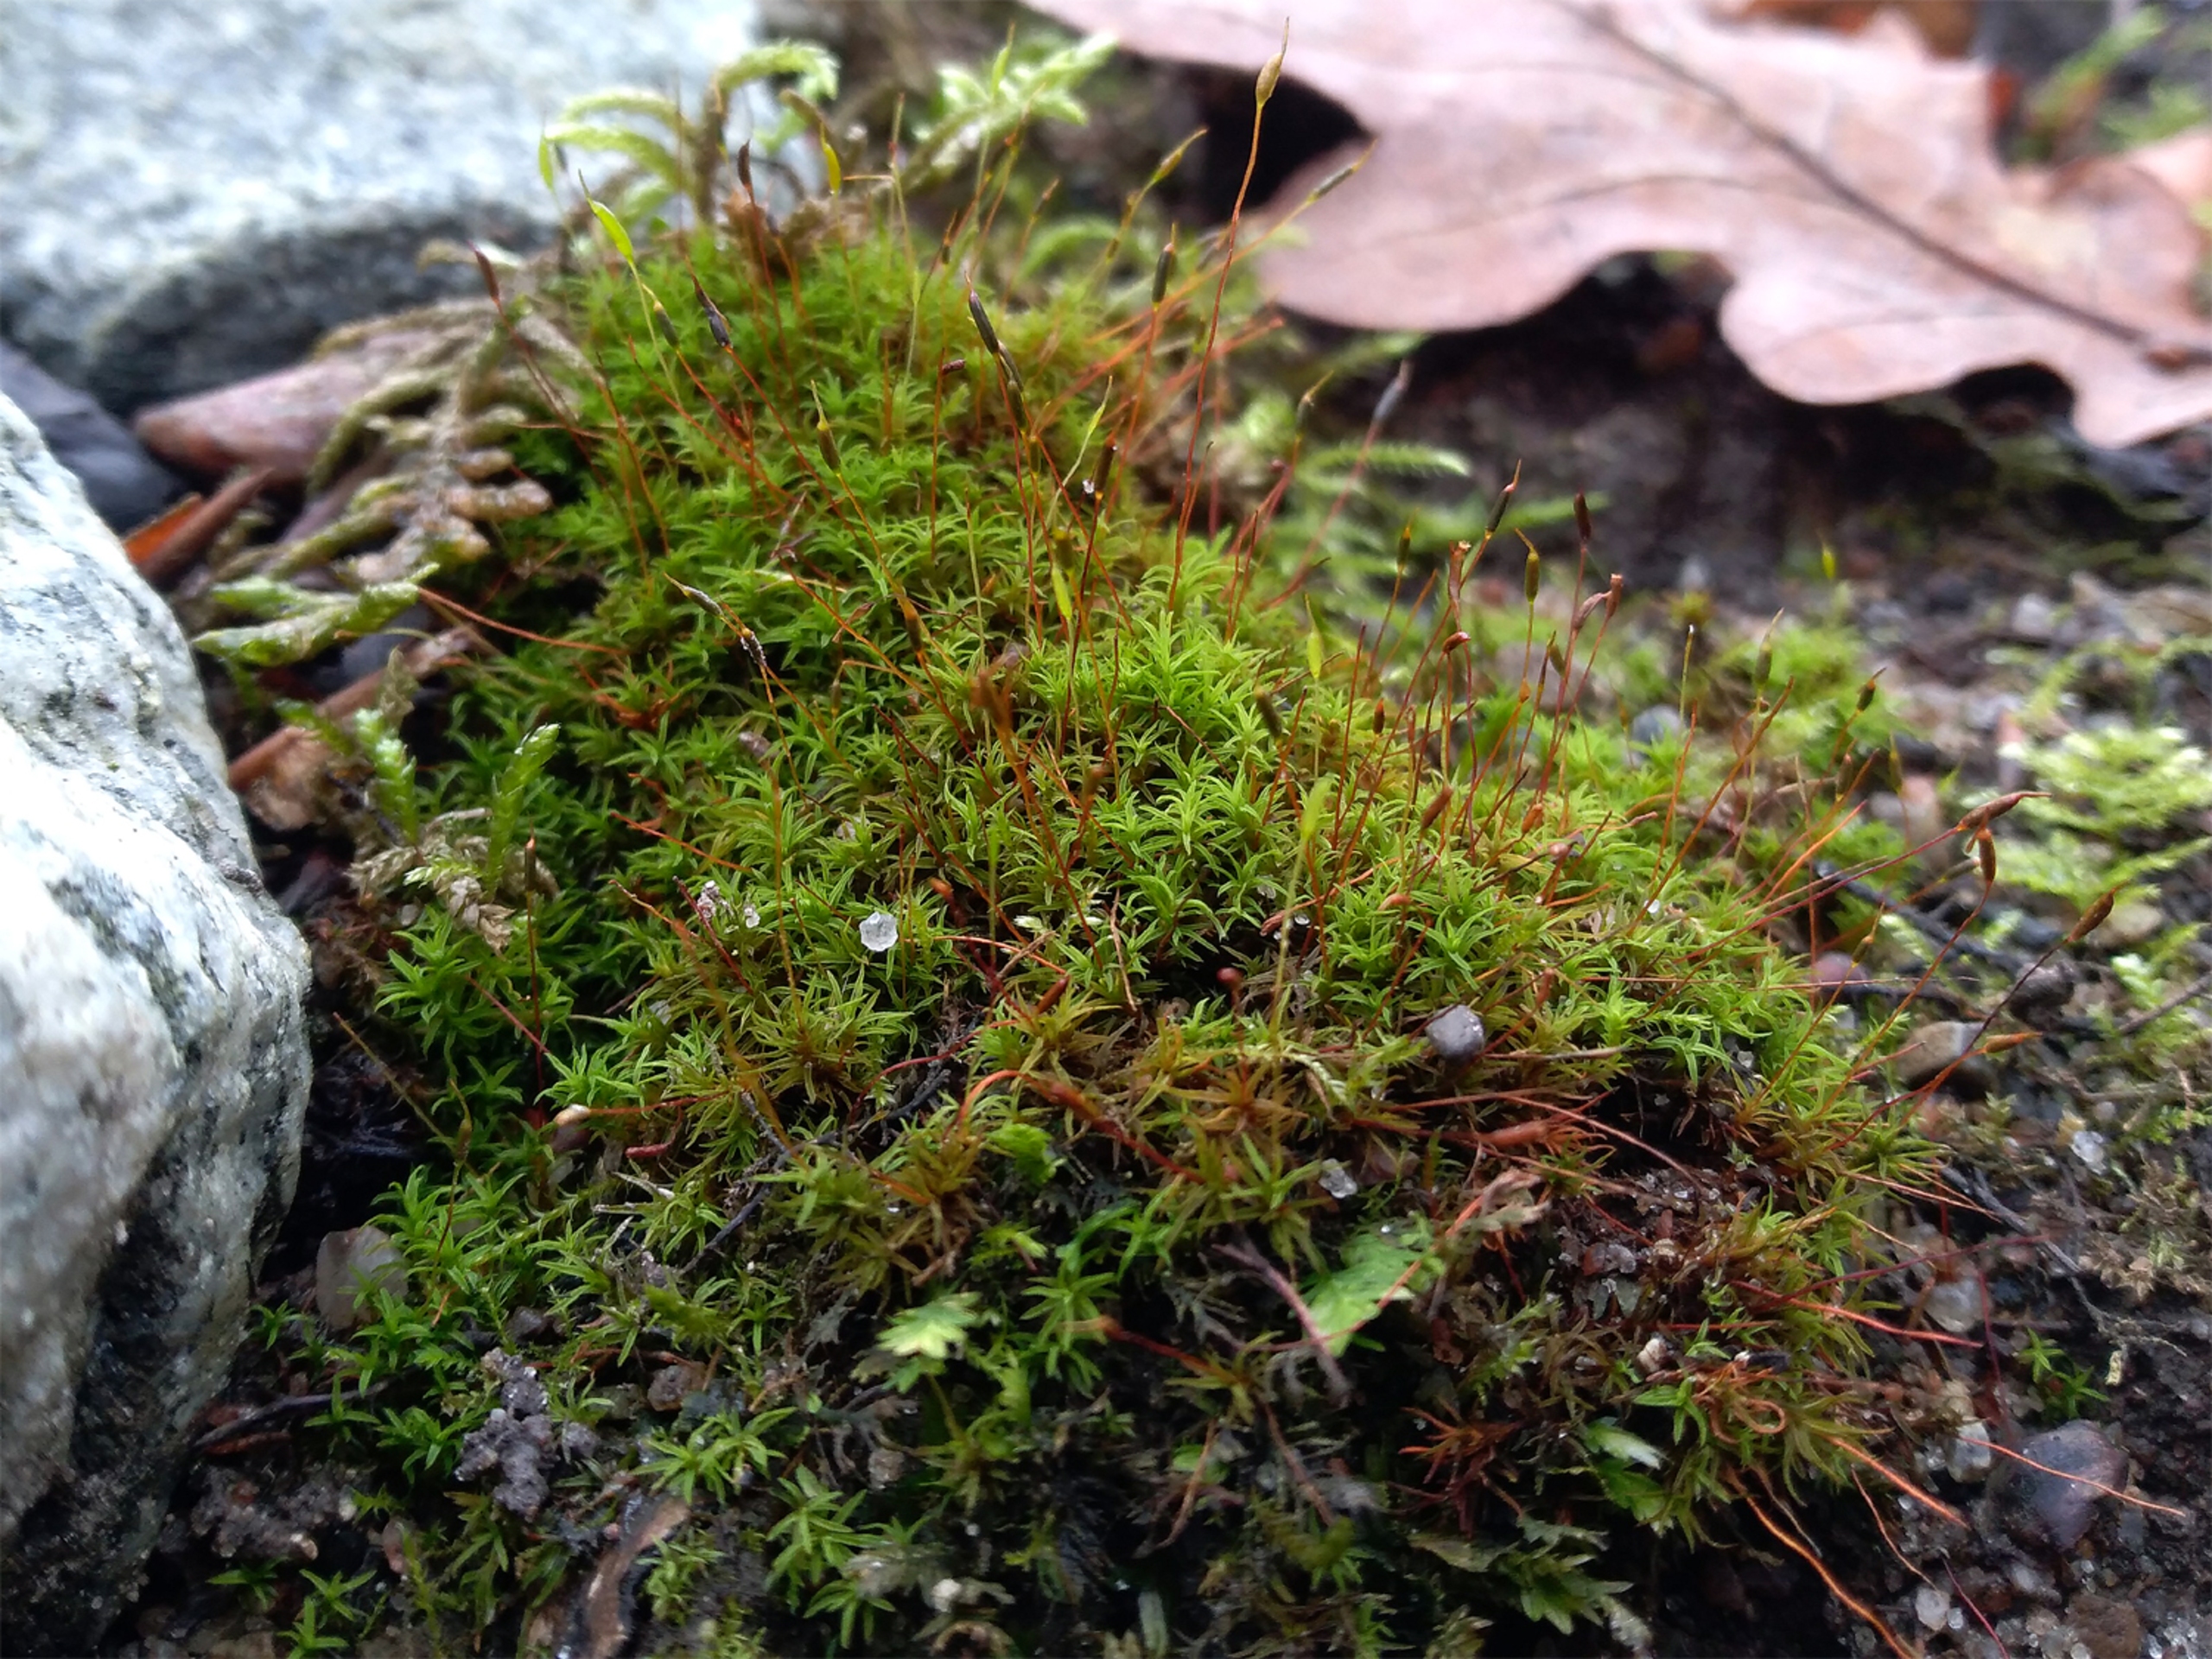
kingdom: Plantae
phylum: Bryophyta
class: Bryopsida
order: Pottiales
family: Pottiaceae
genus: Bryoerythrophyllum
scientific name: Bryoerythrophyllum recurvirostrum
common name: Rød gammelblad
